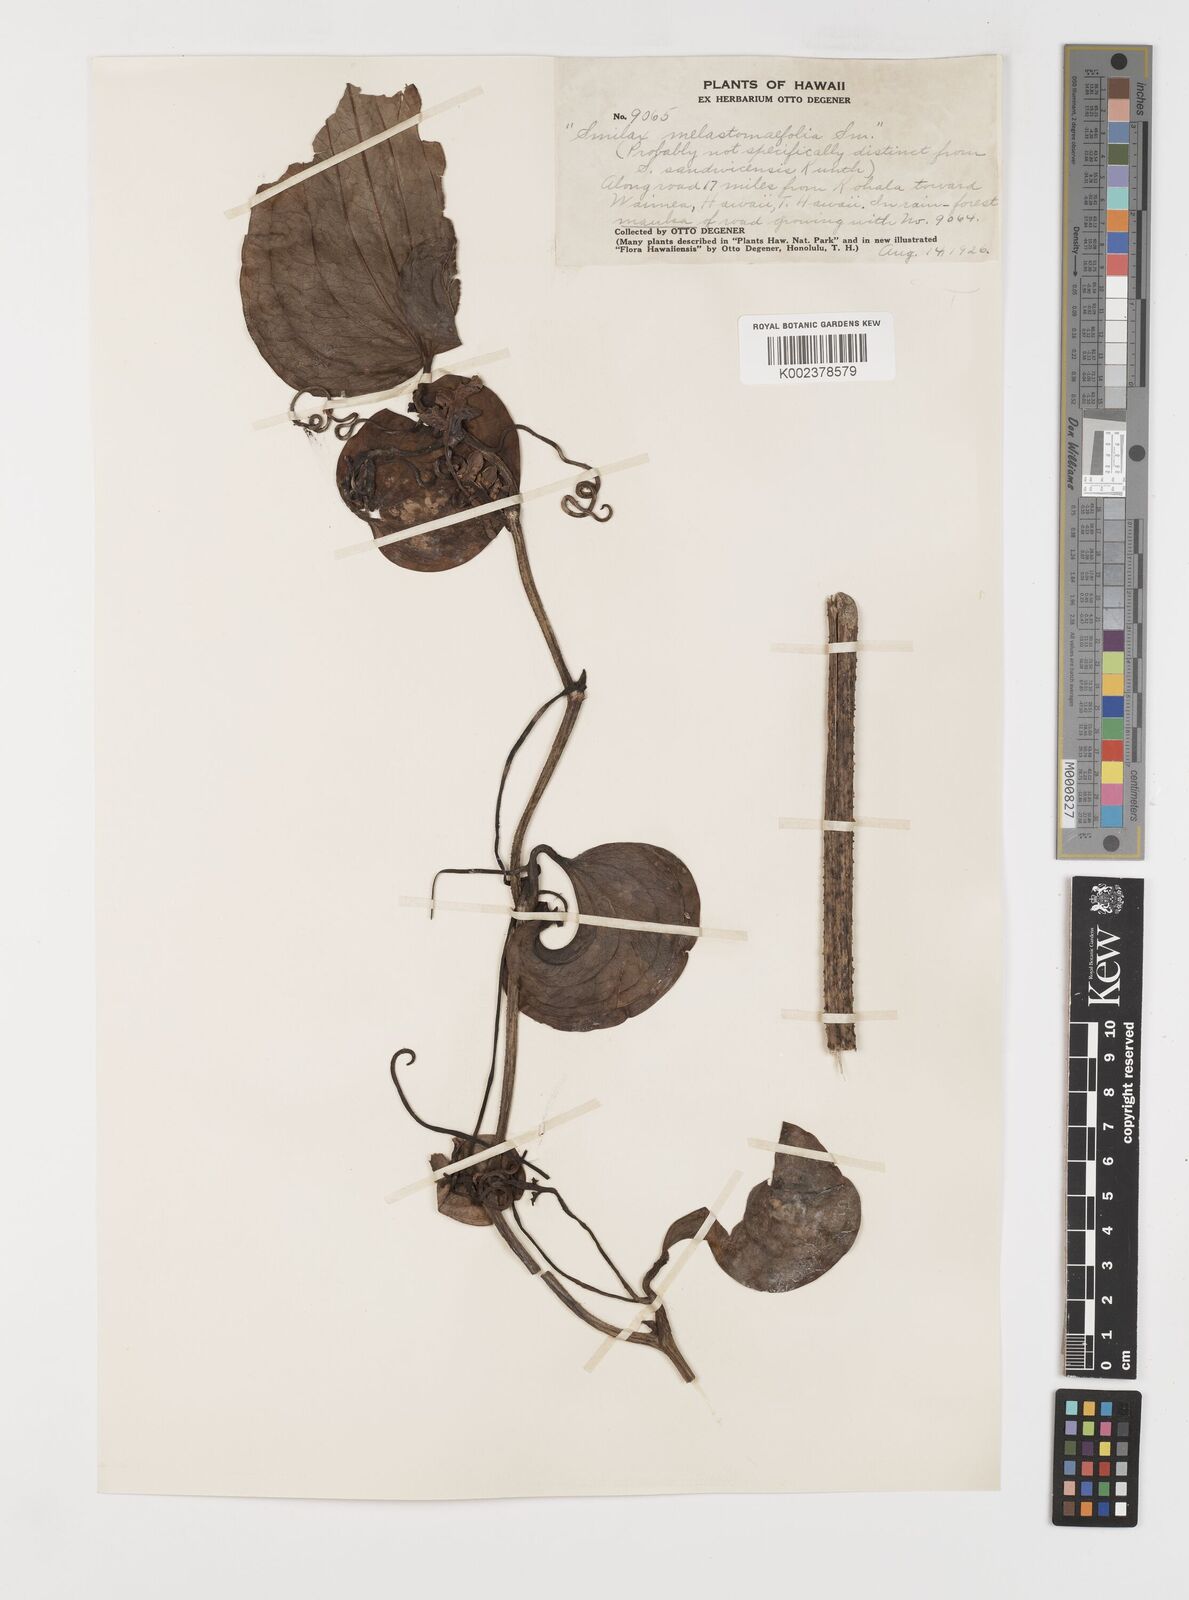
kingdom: Plantae
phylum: Tracheophyta
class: Liliopsida
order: Liliales
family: Smilacaceae
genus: Smilax
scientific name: Smilax melastomifolia
